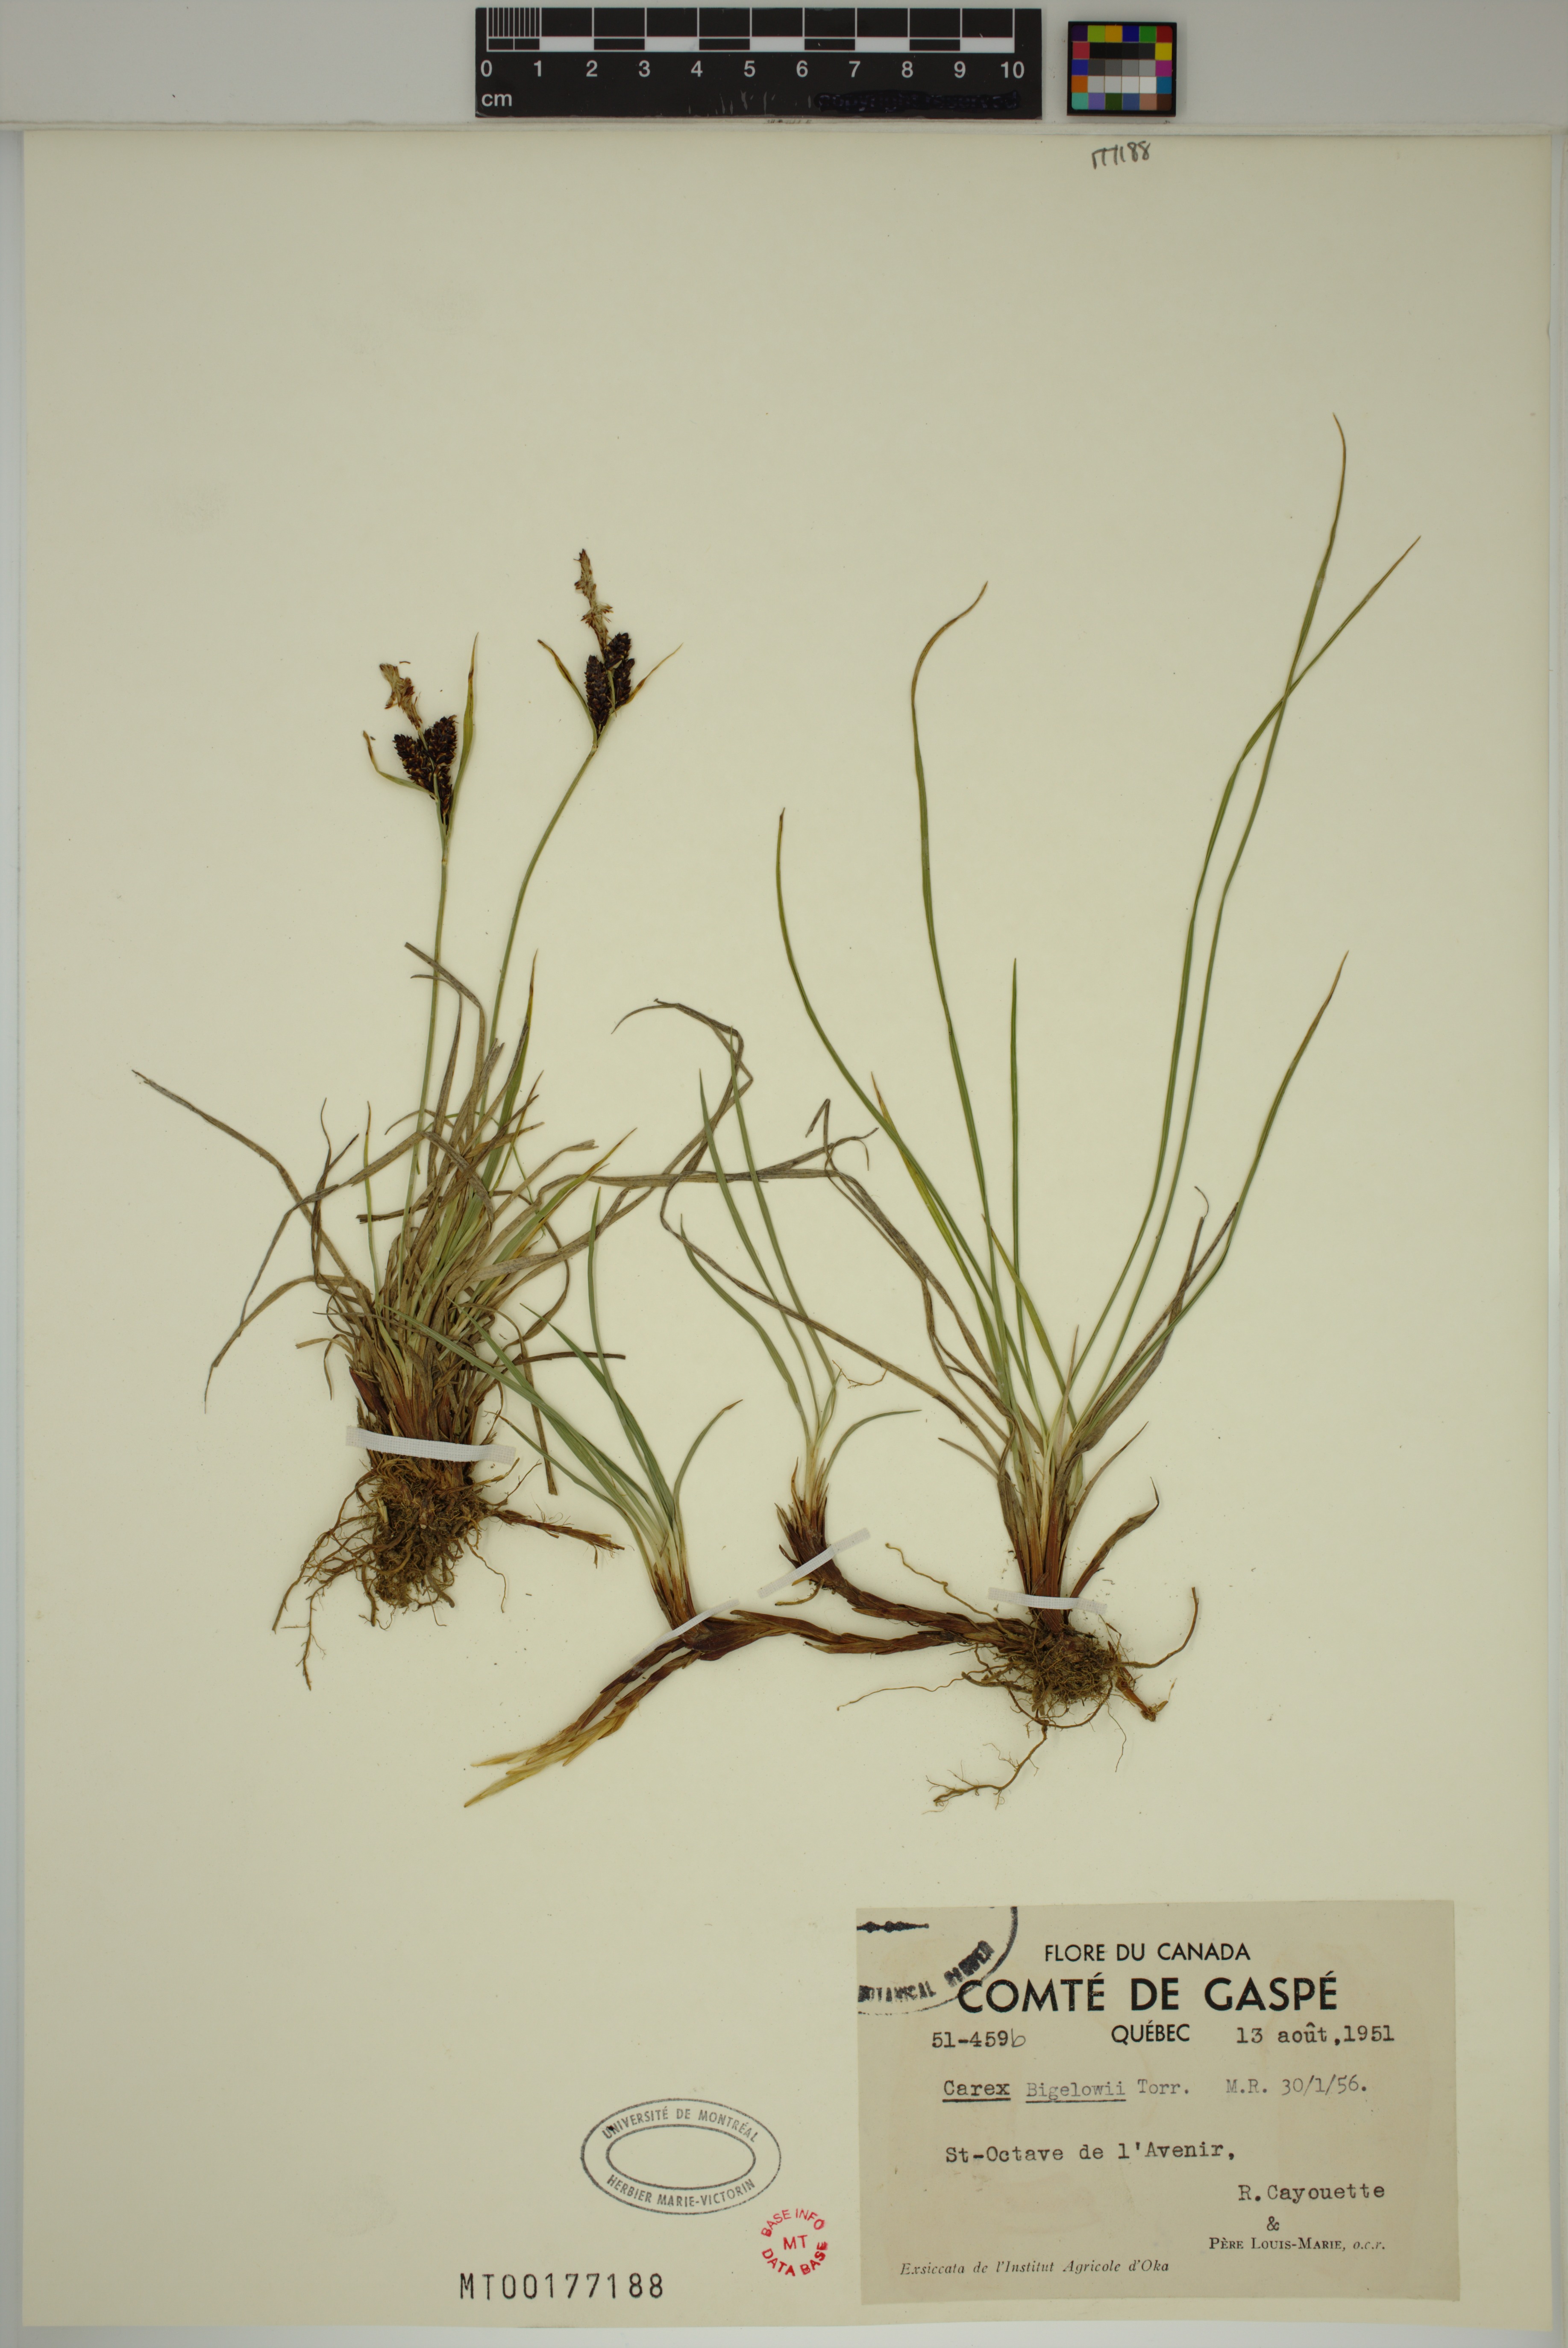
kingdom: Plantae
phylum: Tracheophyta
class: Liliopsida
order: Poales
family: Cyperaceae
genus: Carex
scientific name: Carex bigelowii
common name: Stiff sedge
